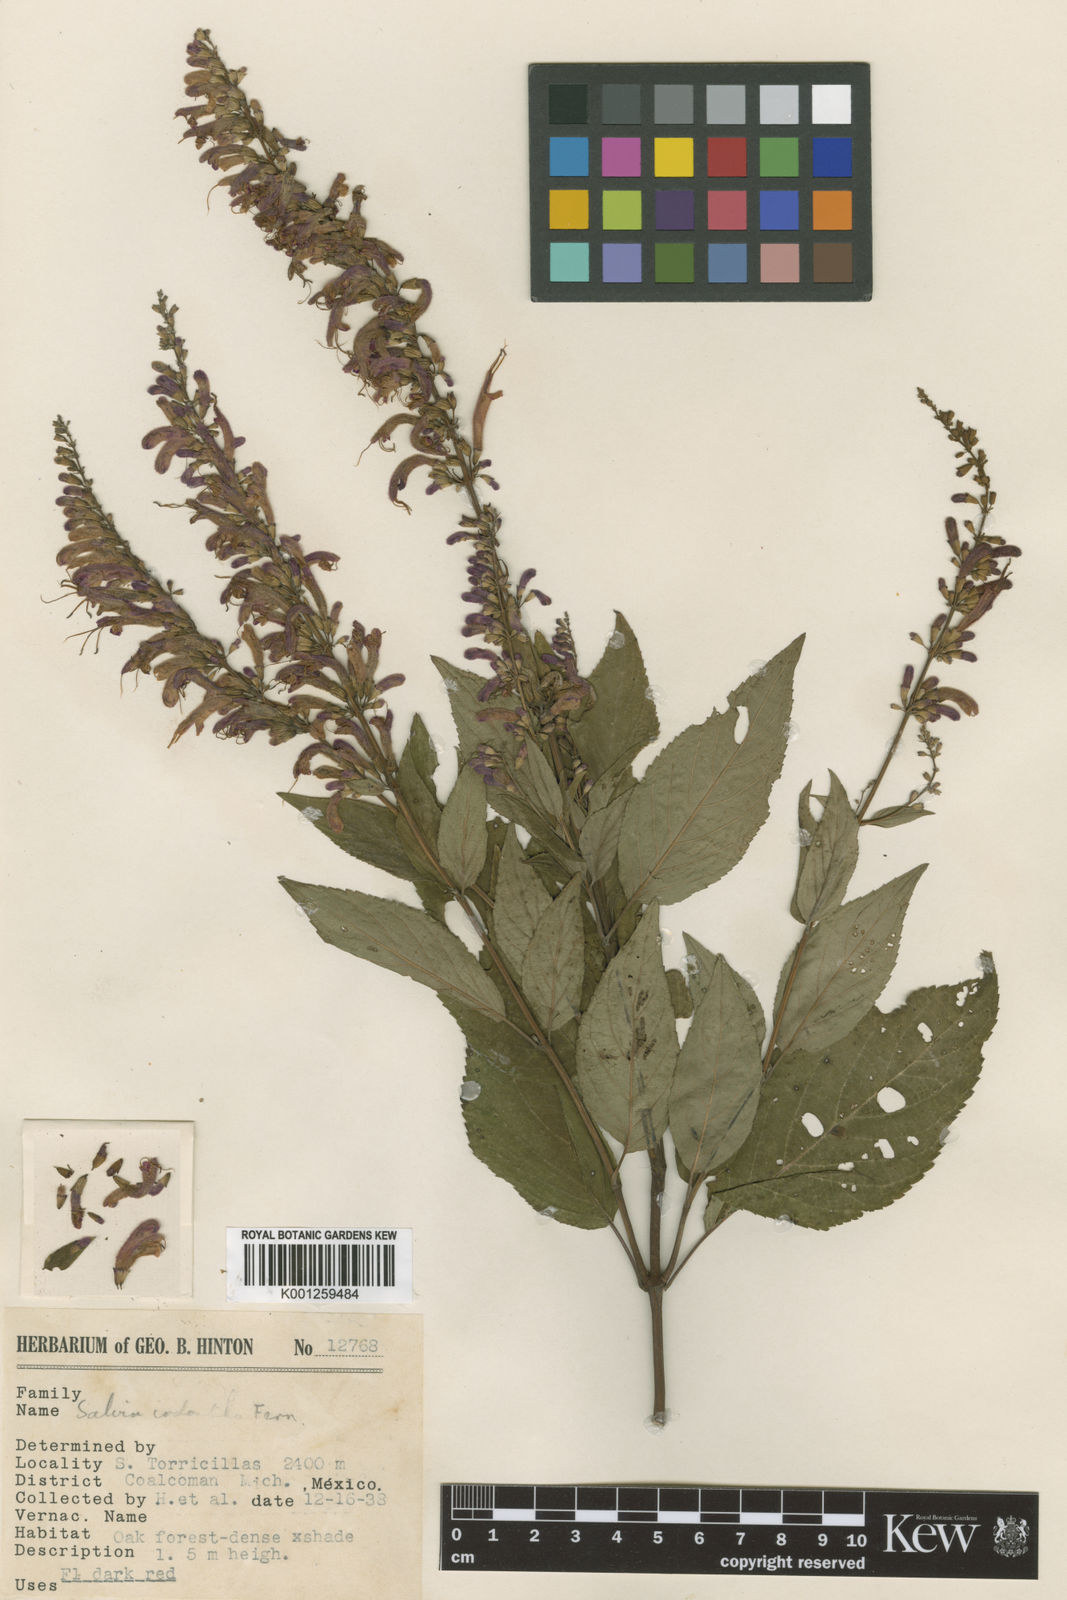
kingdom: Plantae
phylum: Tracheophyta
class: Magnoliopsida
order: Lamiales
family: Lamiaceae
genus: Salvia
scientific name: Salvia iodantha
